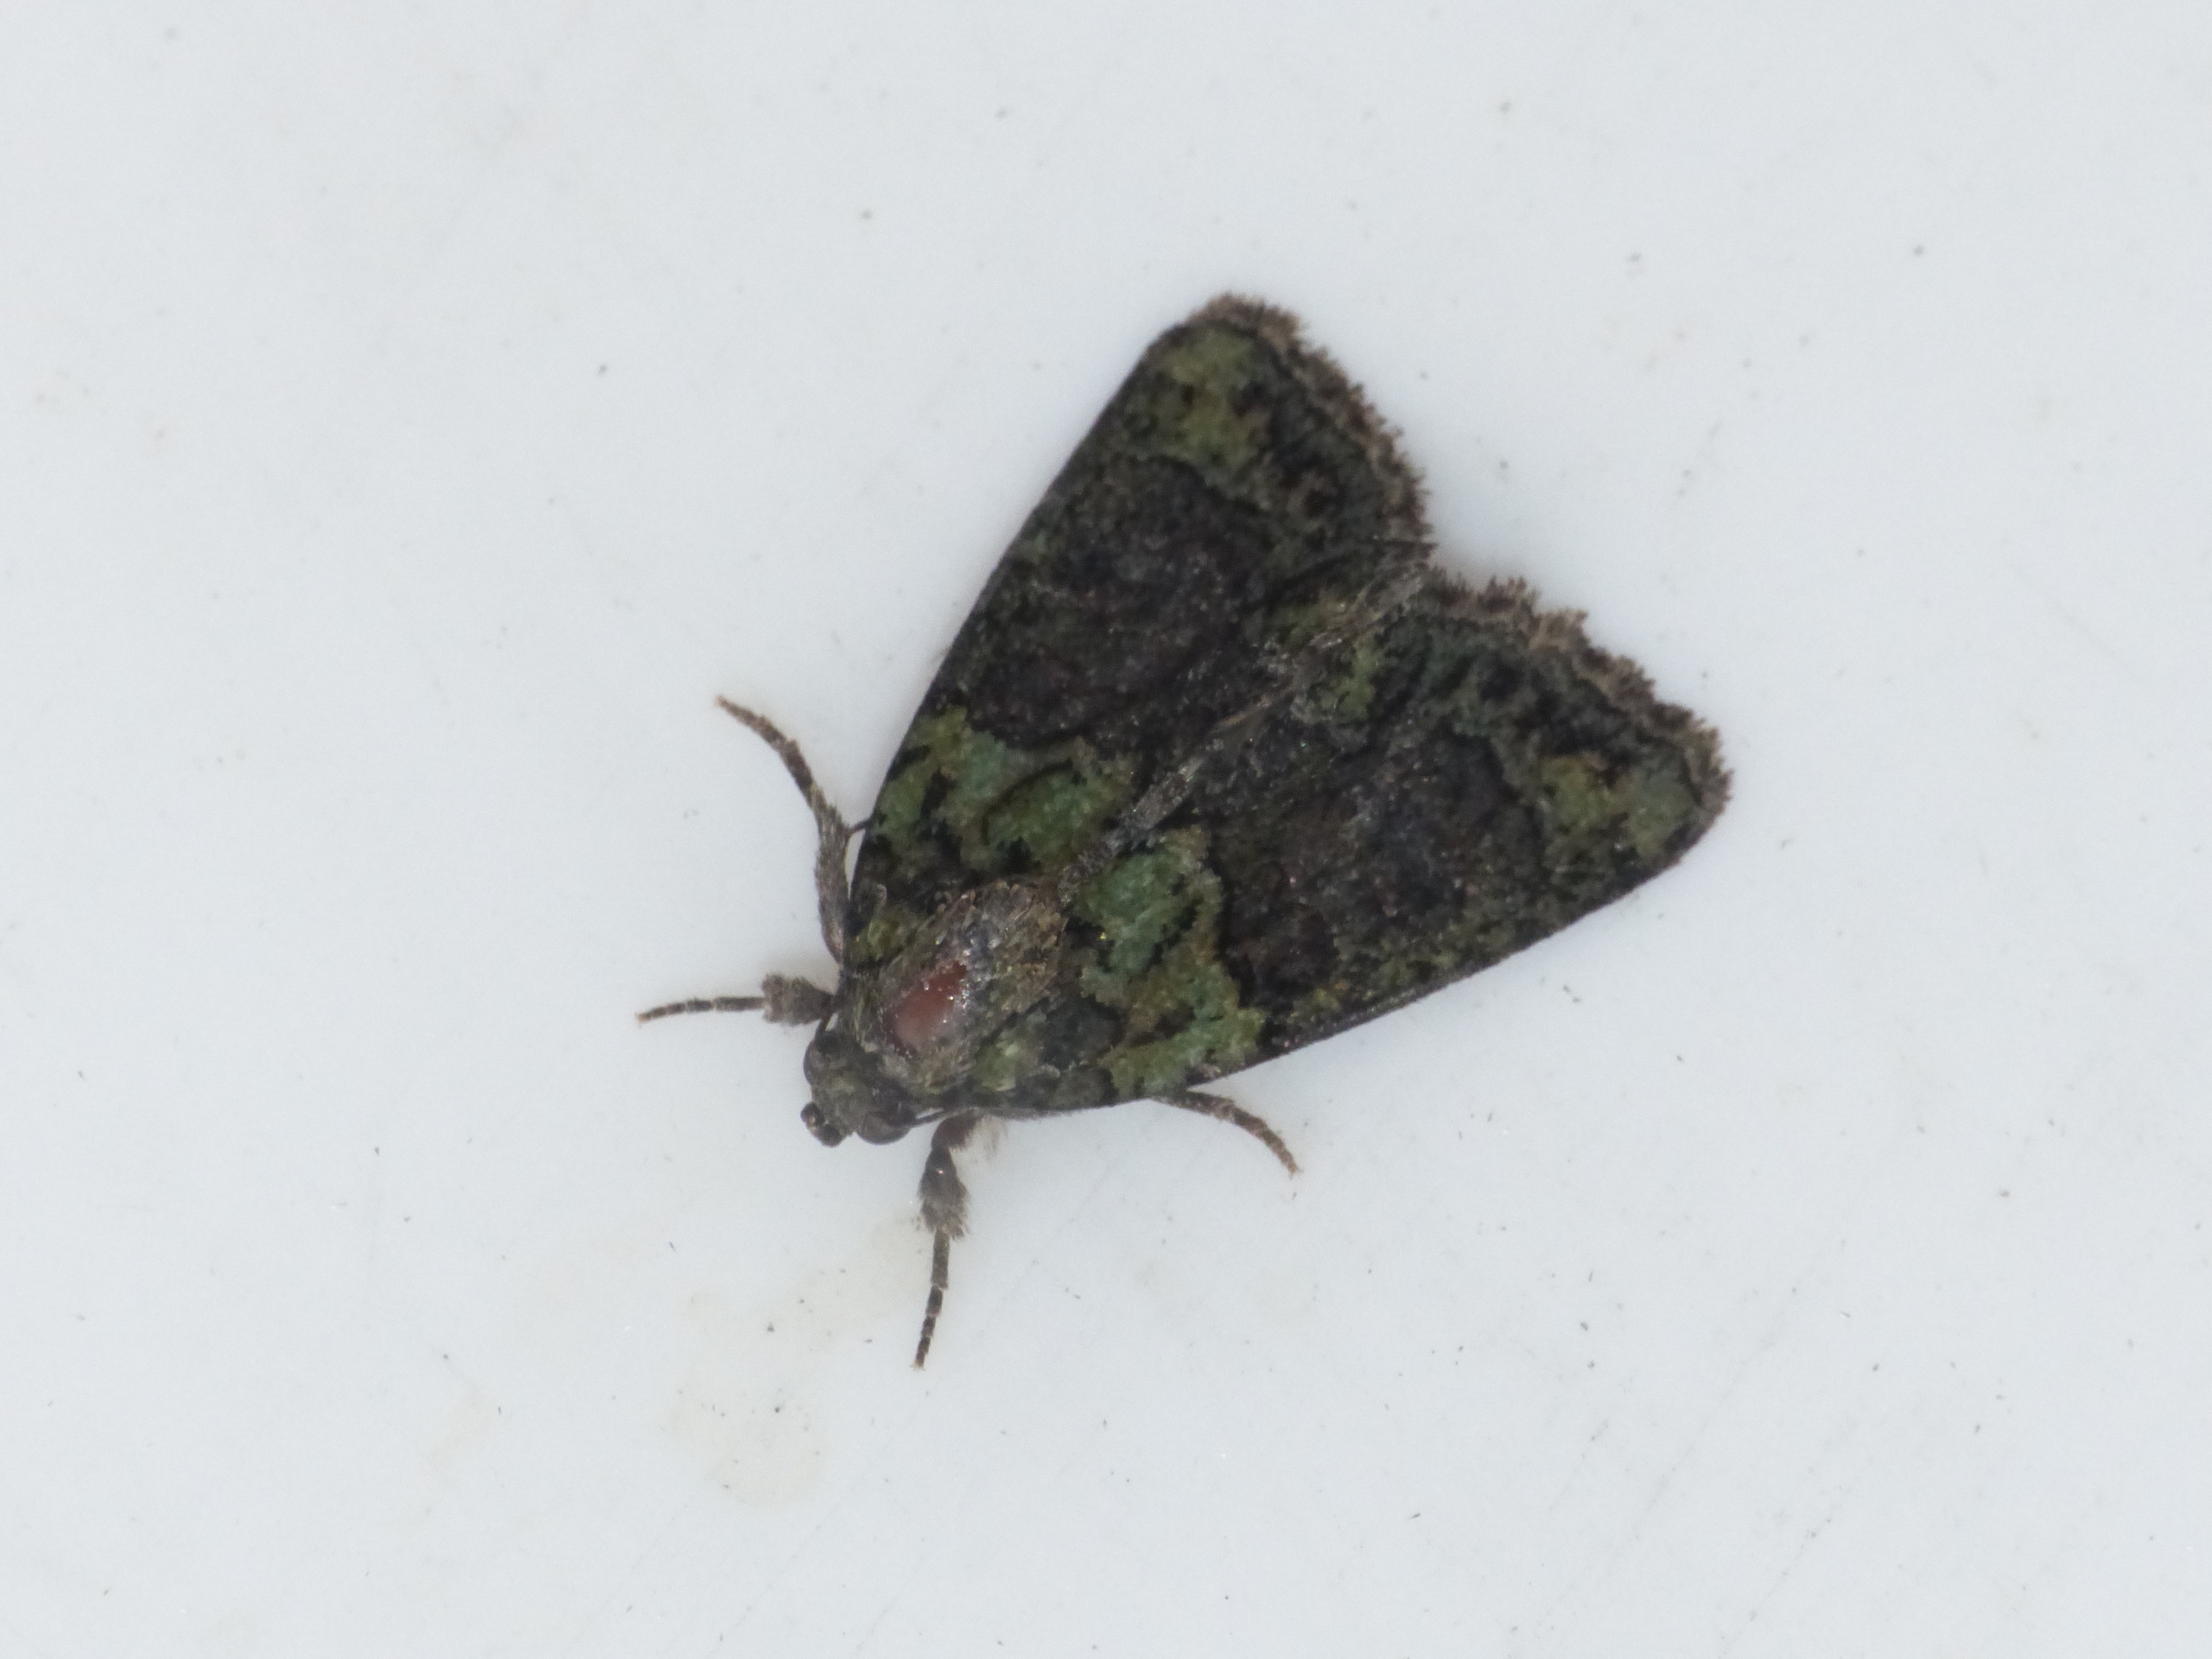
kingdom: Animalia
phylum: Arthropoda
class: Insecta
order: Lepidoptera
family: Noctuidae
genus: Cryphia
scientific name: Cryphia algae
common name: Grøn lav-ugle
